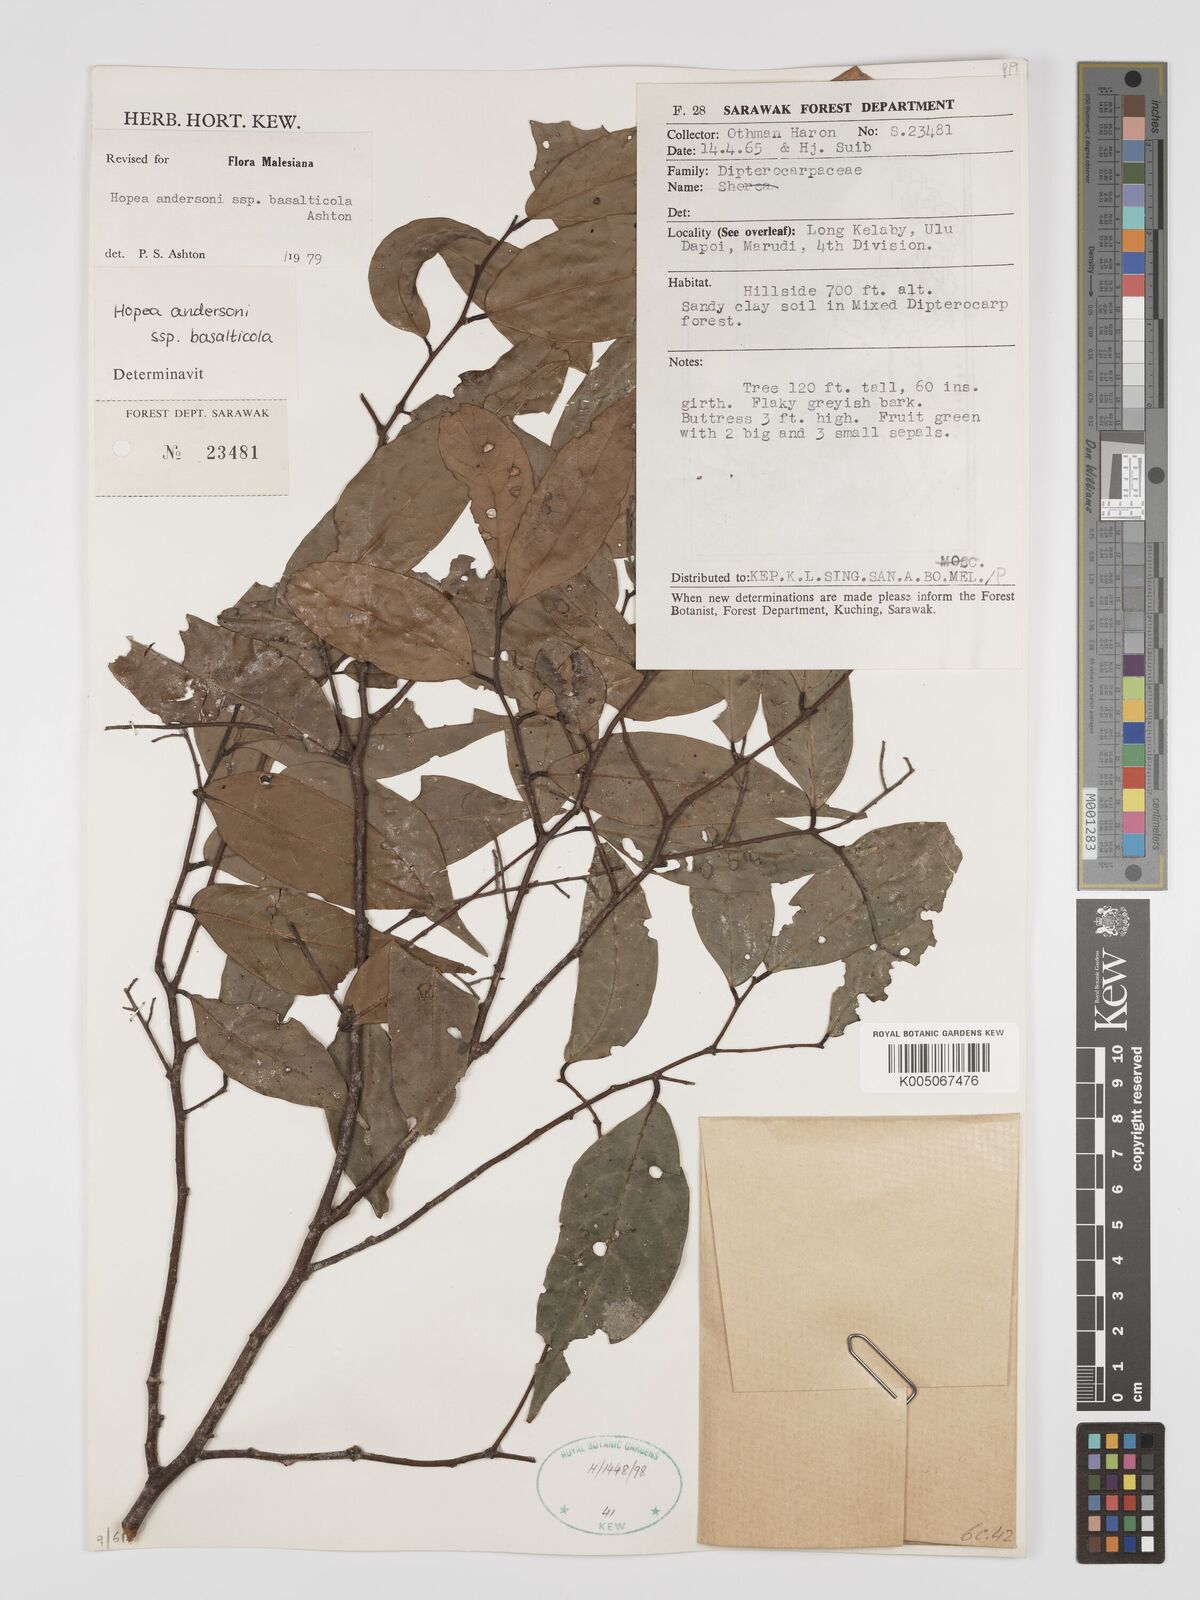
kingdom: Plantae
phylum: Tracheophyta
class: Magnoliopsida
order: Malvales
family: Dipterocarpaceae
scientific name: Dipterocarpaceae
